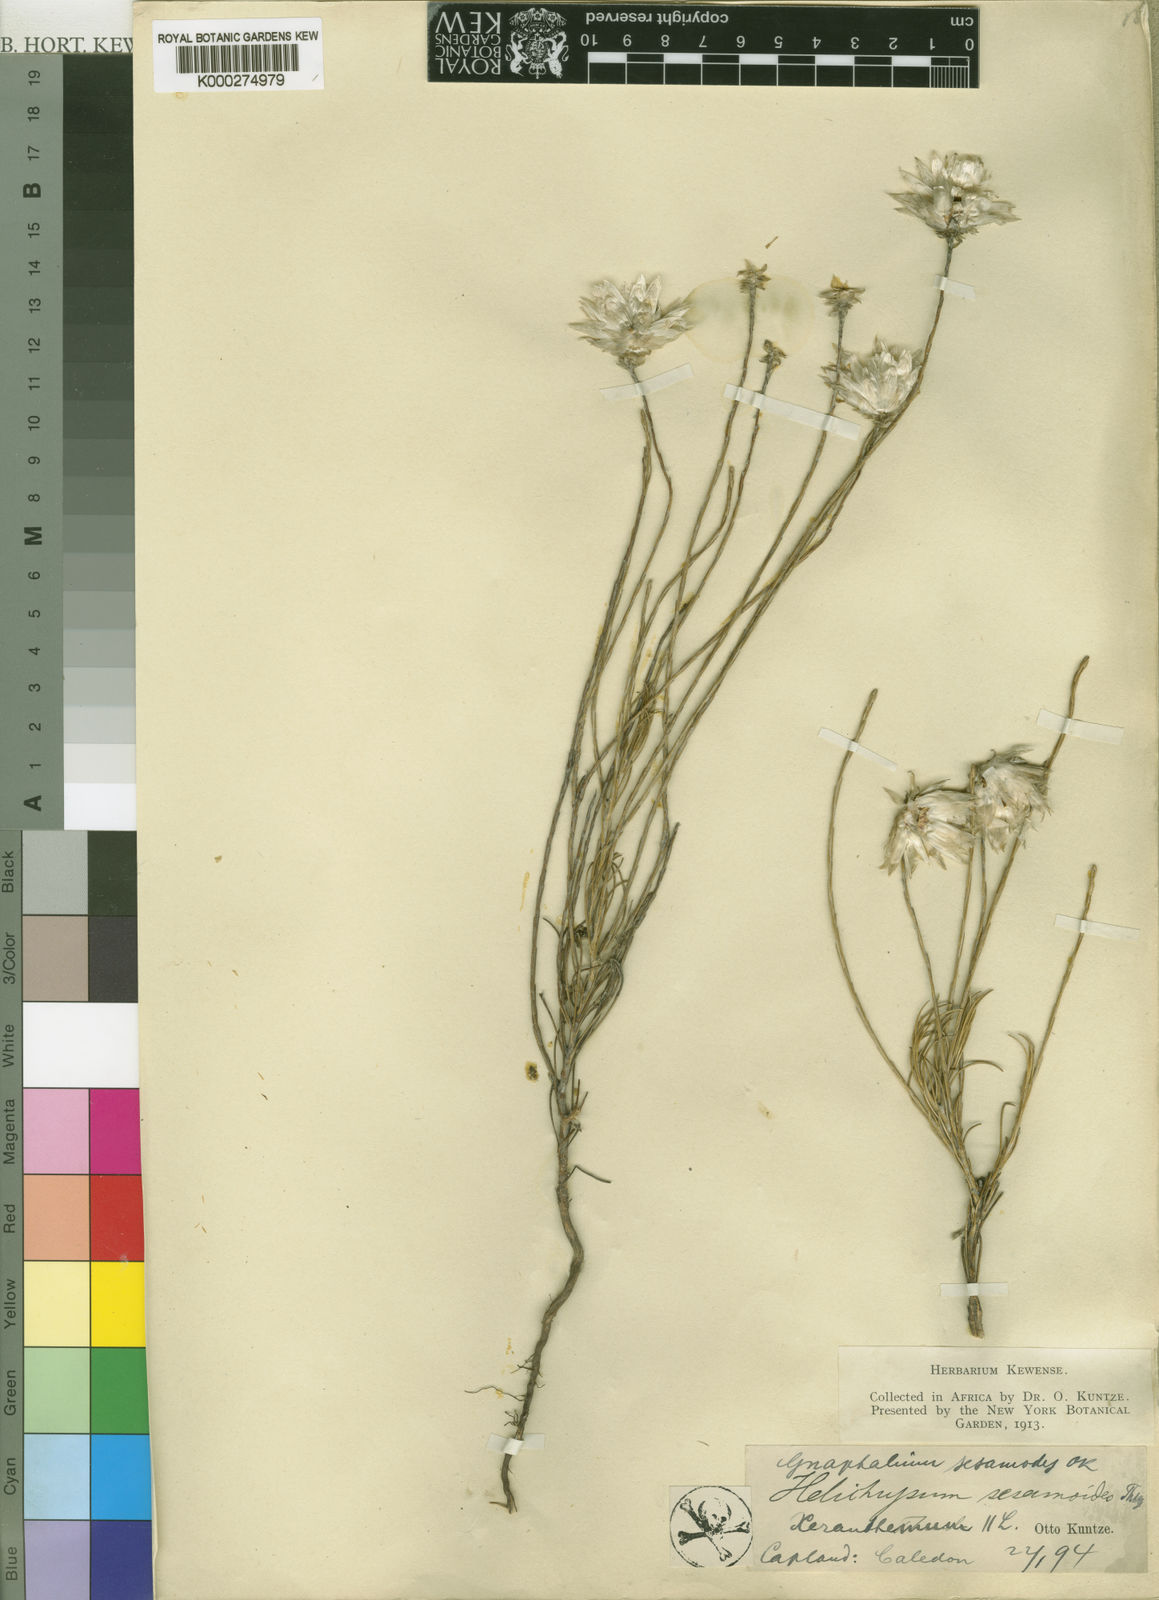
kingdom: Plantae
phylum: Tracheophyta
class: Magnoliopsida
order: Asterales
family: Asteraceae
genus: Edmondia
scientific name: Edmondia sesamoides
